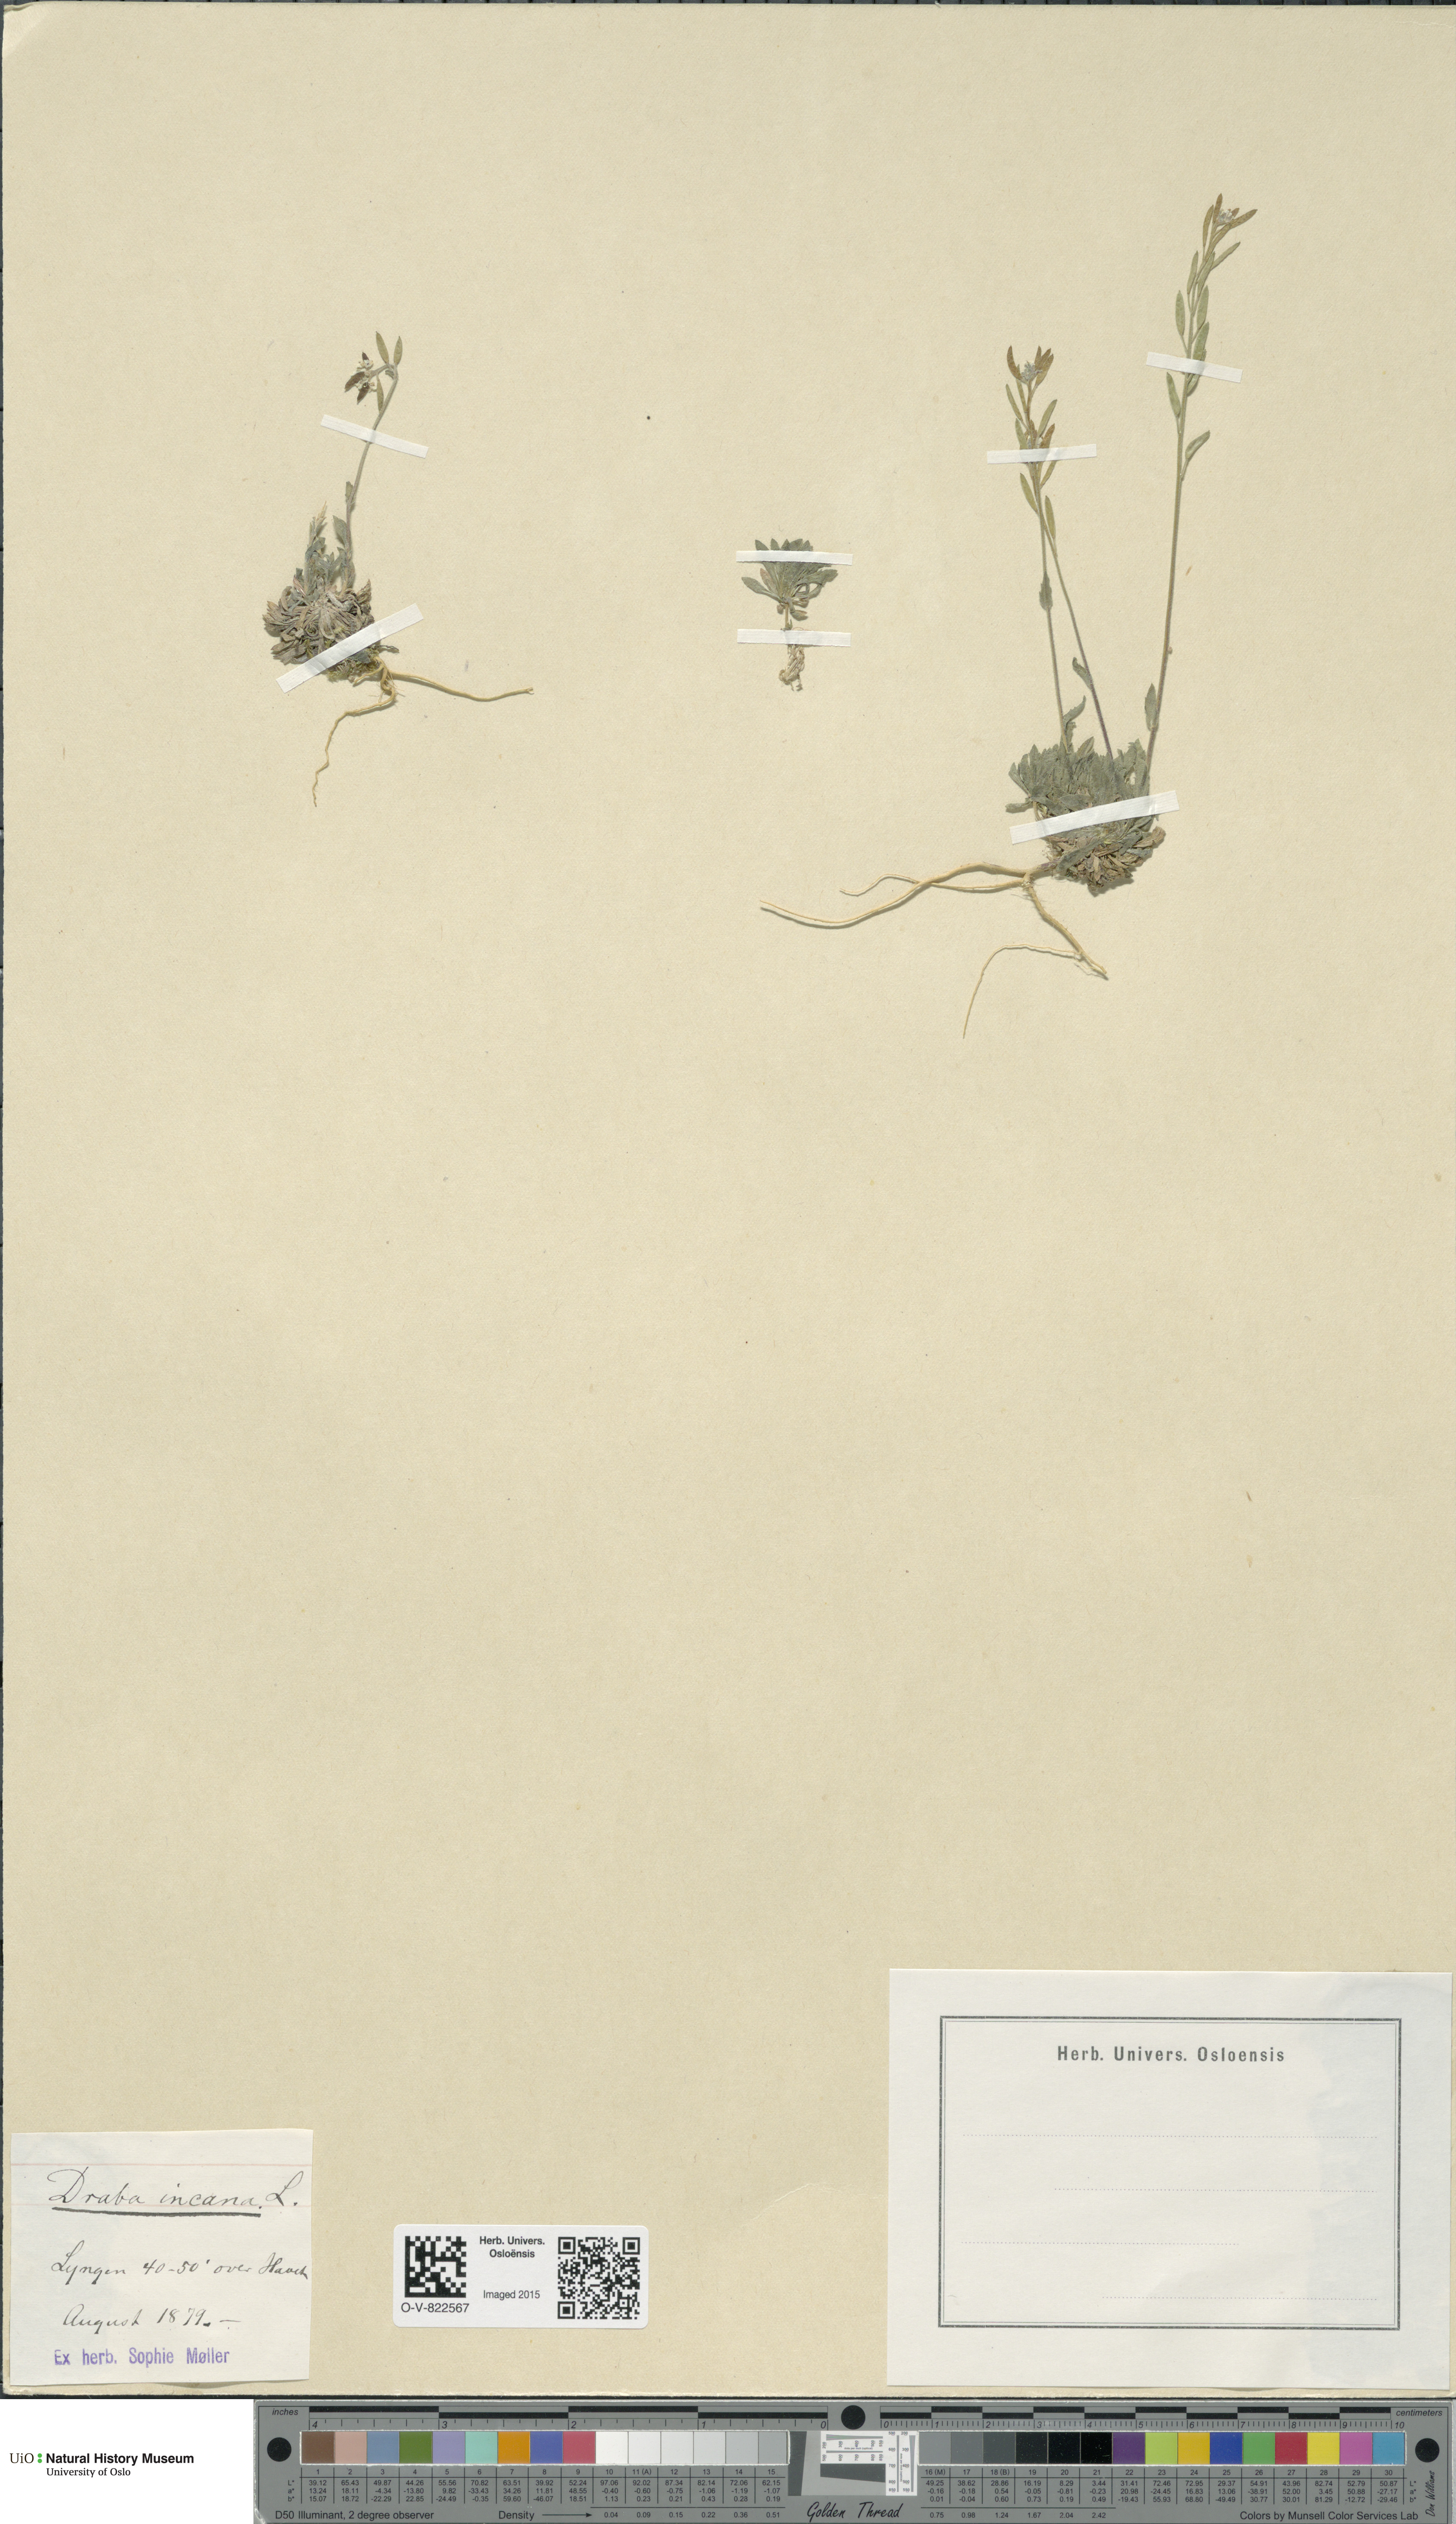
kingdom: Plantae
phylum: Tracheophyta
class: Magnoliopsida
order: Brassicales
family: Brassicaceae
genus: Draba
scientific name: Draba incana
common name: Hoary whitlow-grass
